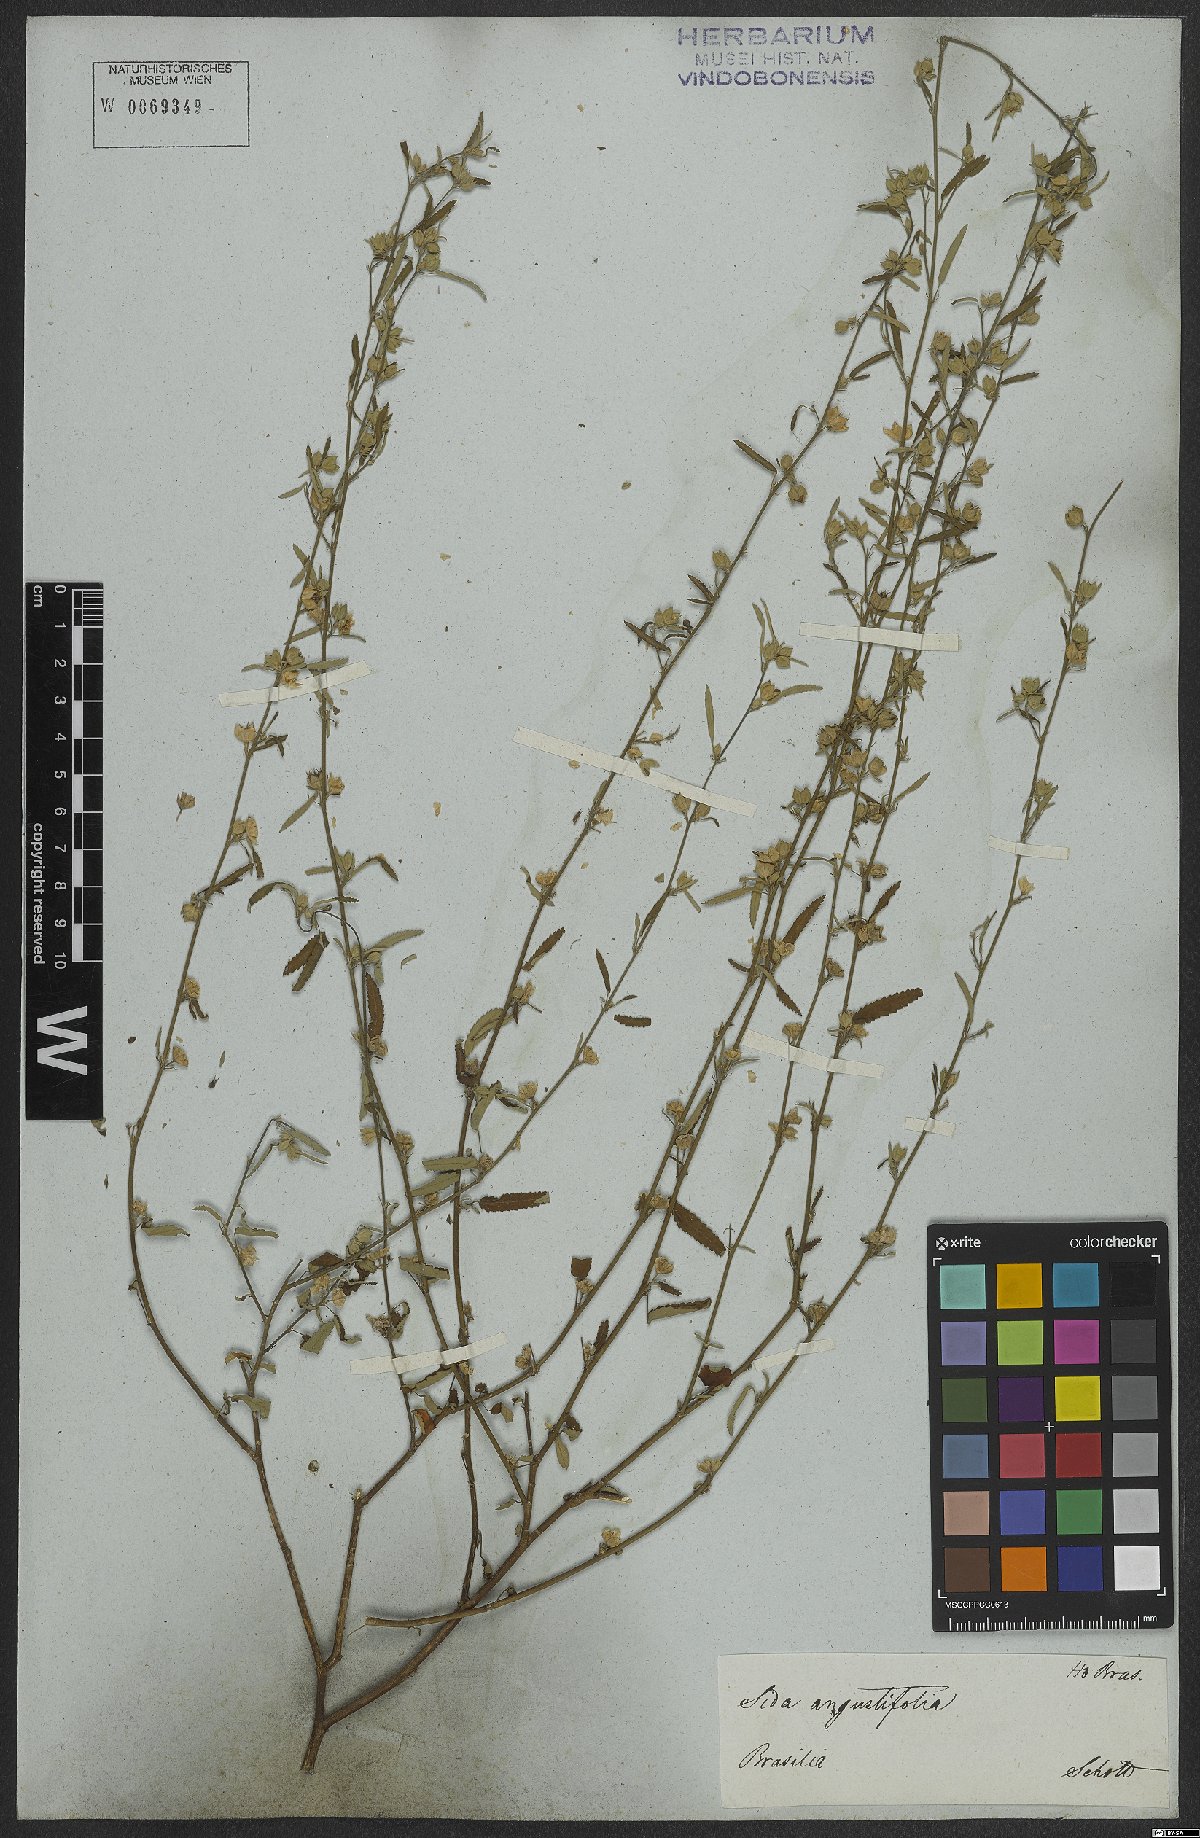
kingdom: Plantae
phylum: Tracheophyta
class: Magnoliopsida
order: Malvales
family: Malvaceae
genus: Sida
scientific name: Sida spinosa
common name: Prickly fanpetals
